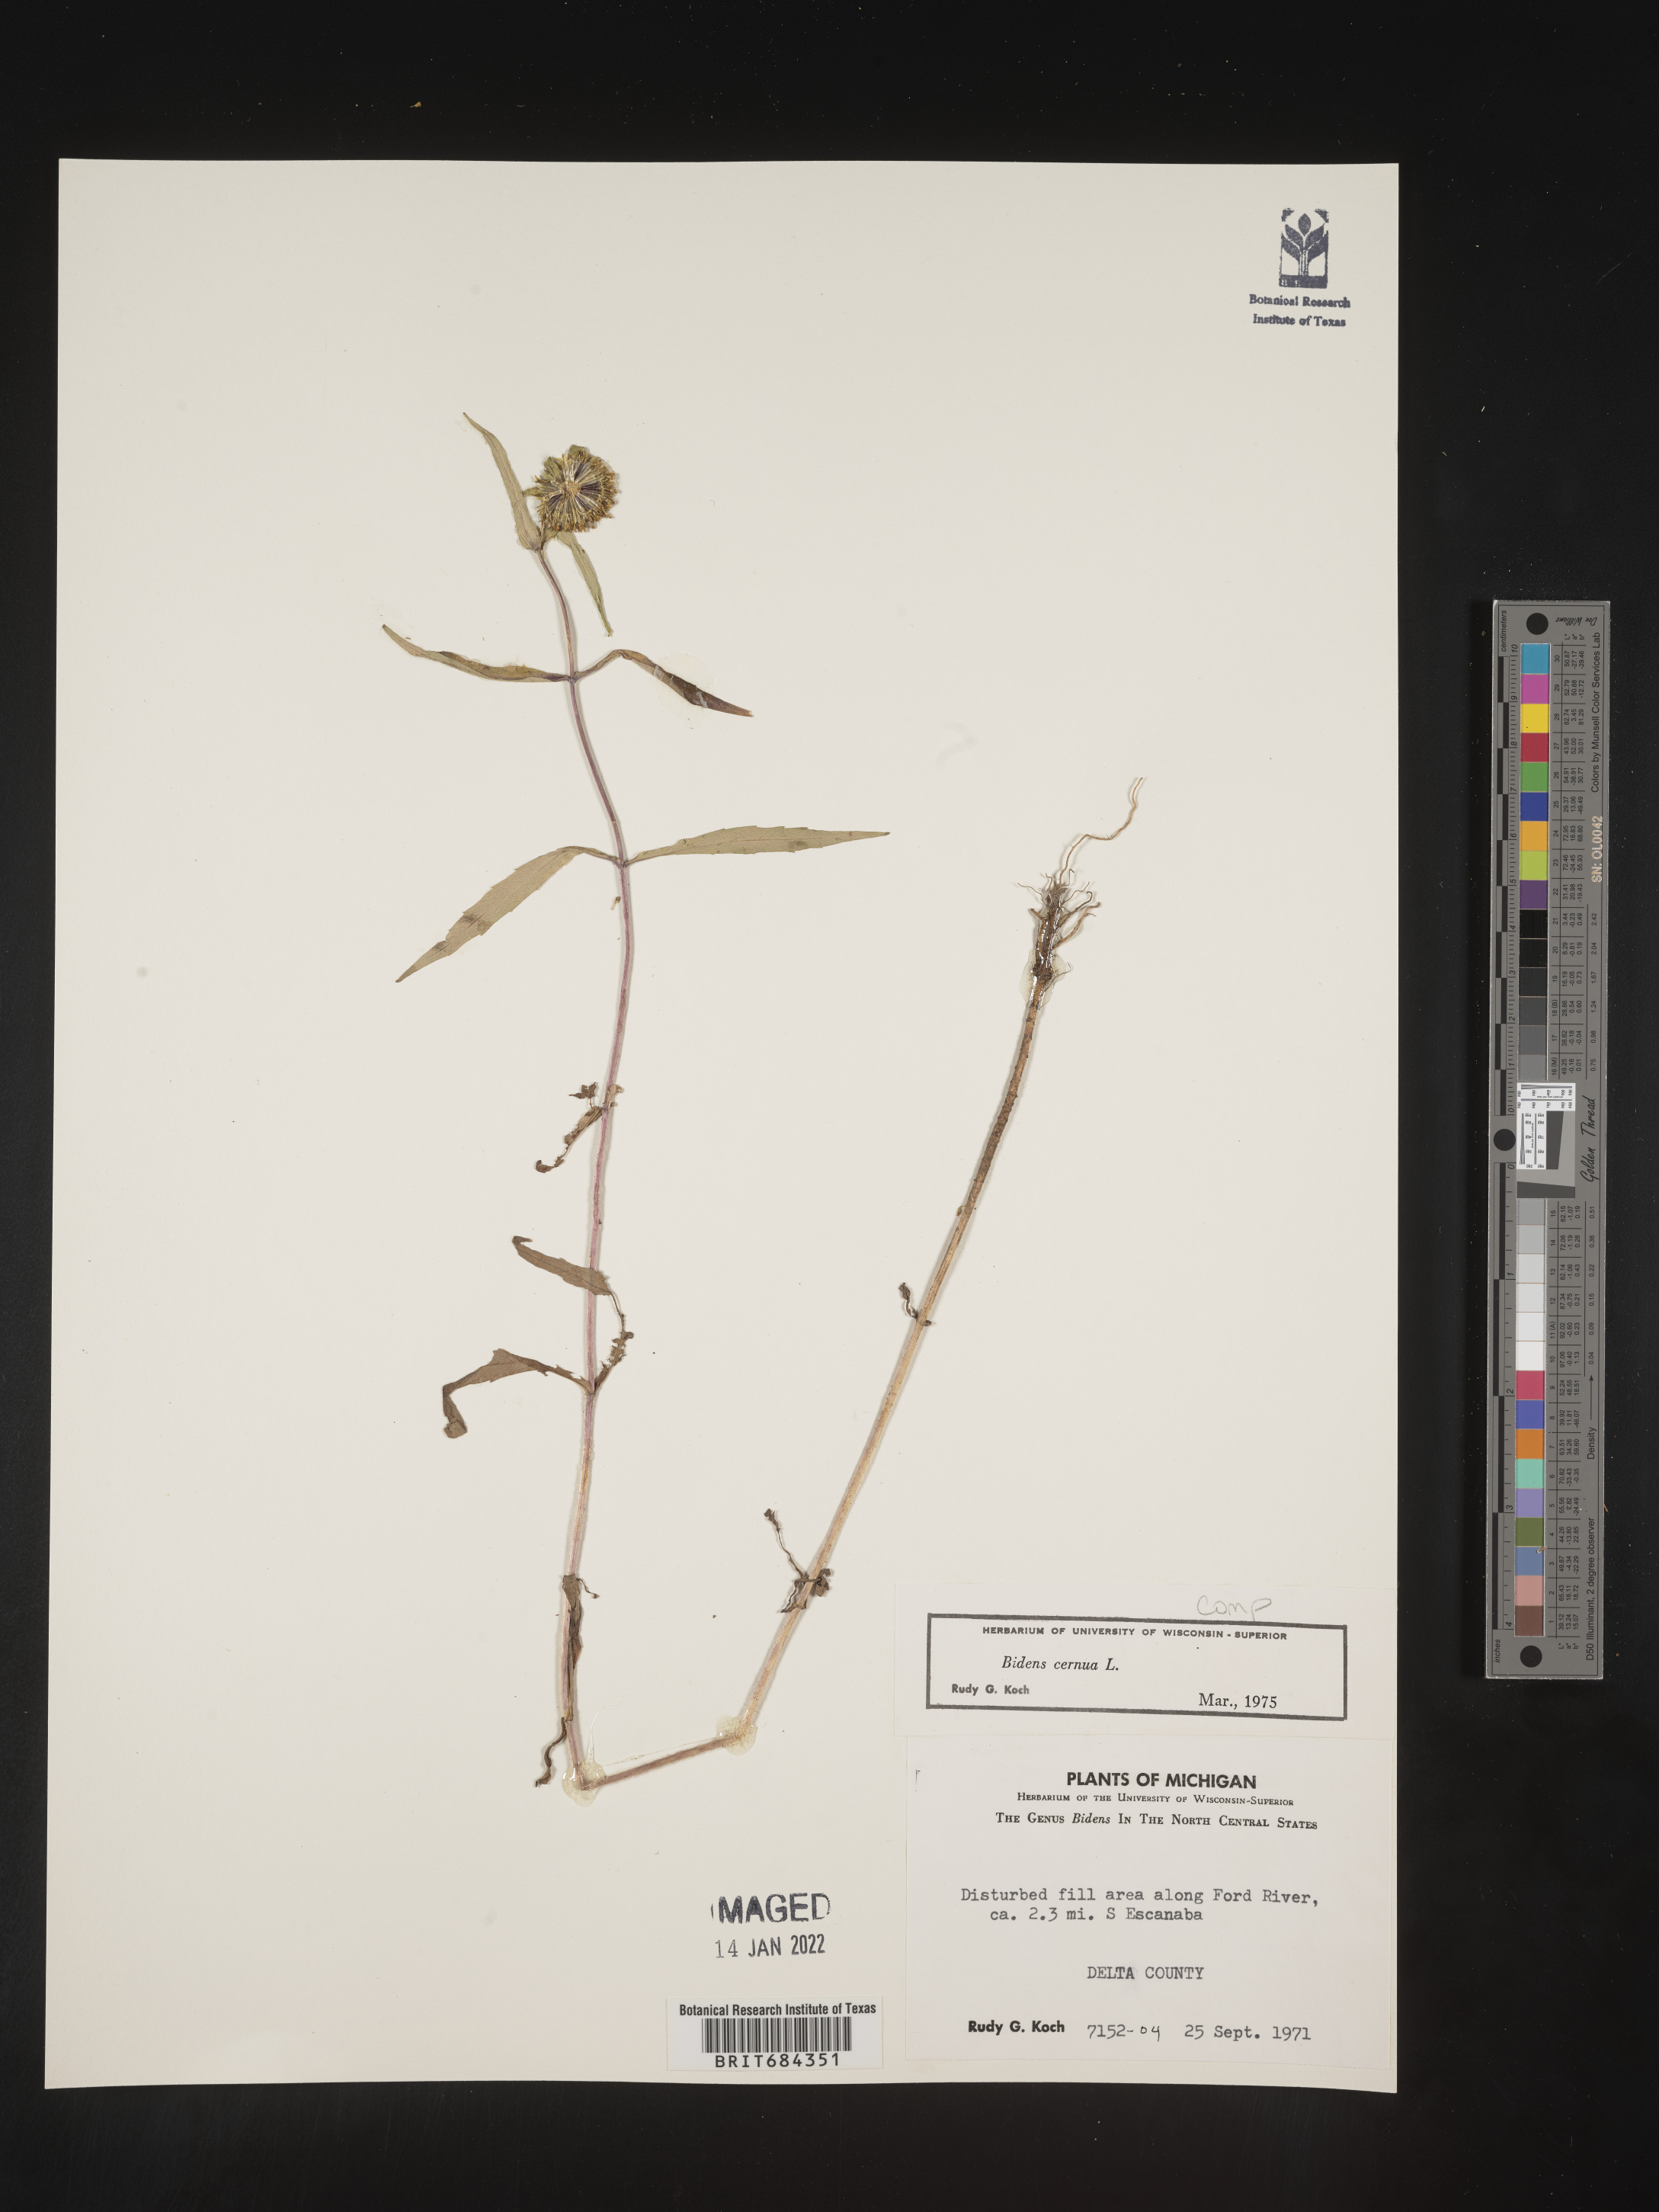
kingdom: Plantae
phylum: Tracheophyta
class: Magnoliopsida
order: Asterales
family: Asteraceae
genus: Bidens
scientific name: Bidens cernua
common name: Nodding bur-marigold
